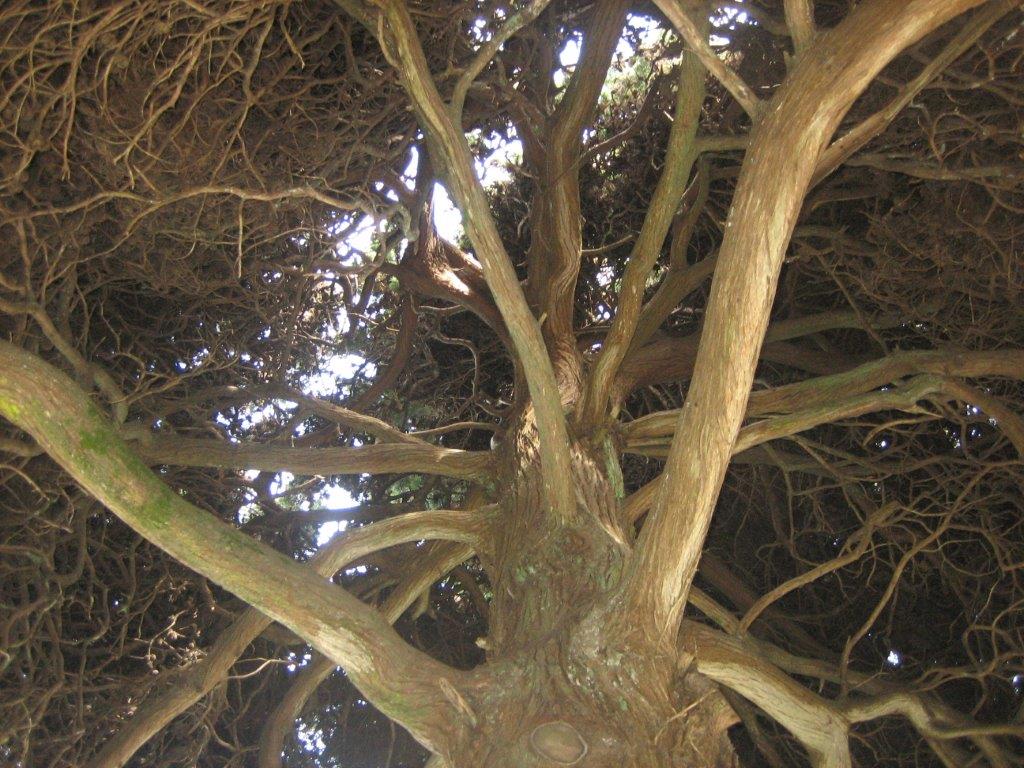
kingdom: Plantae
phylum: Tracheophyta
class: Pinopsida
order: Pinales
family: Cupressaceae
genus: Cupressus
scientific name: Cupressus sempervirens
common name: Italian cypress
